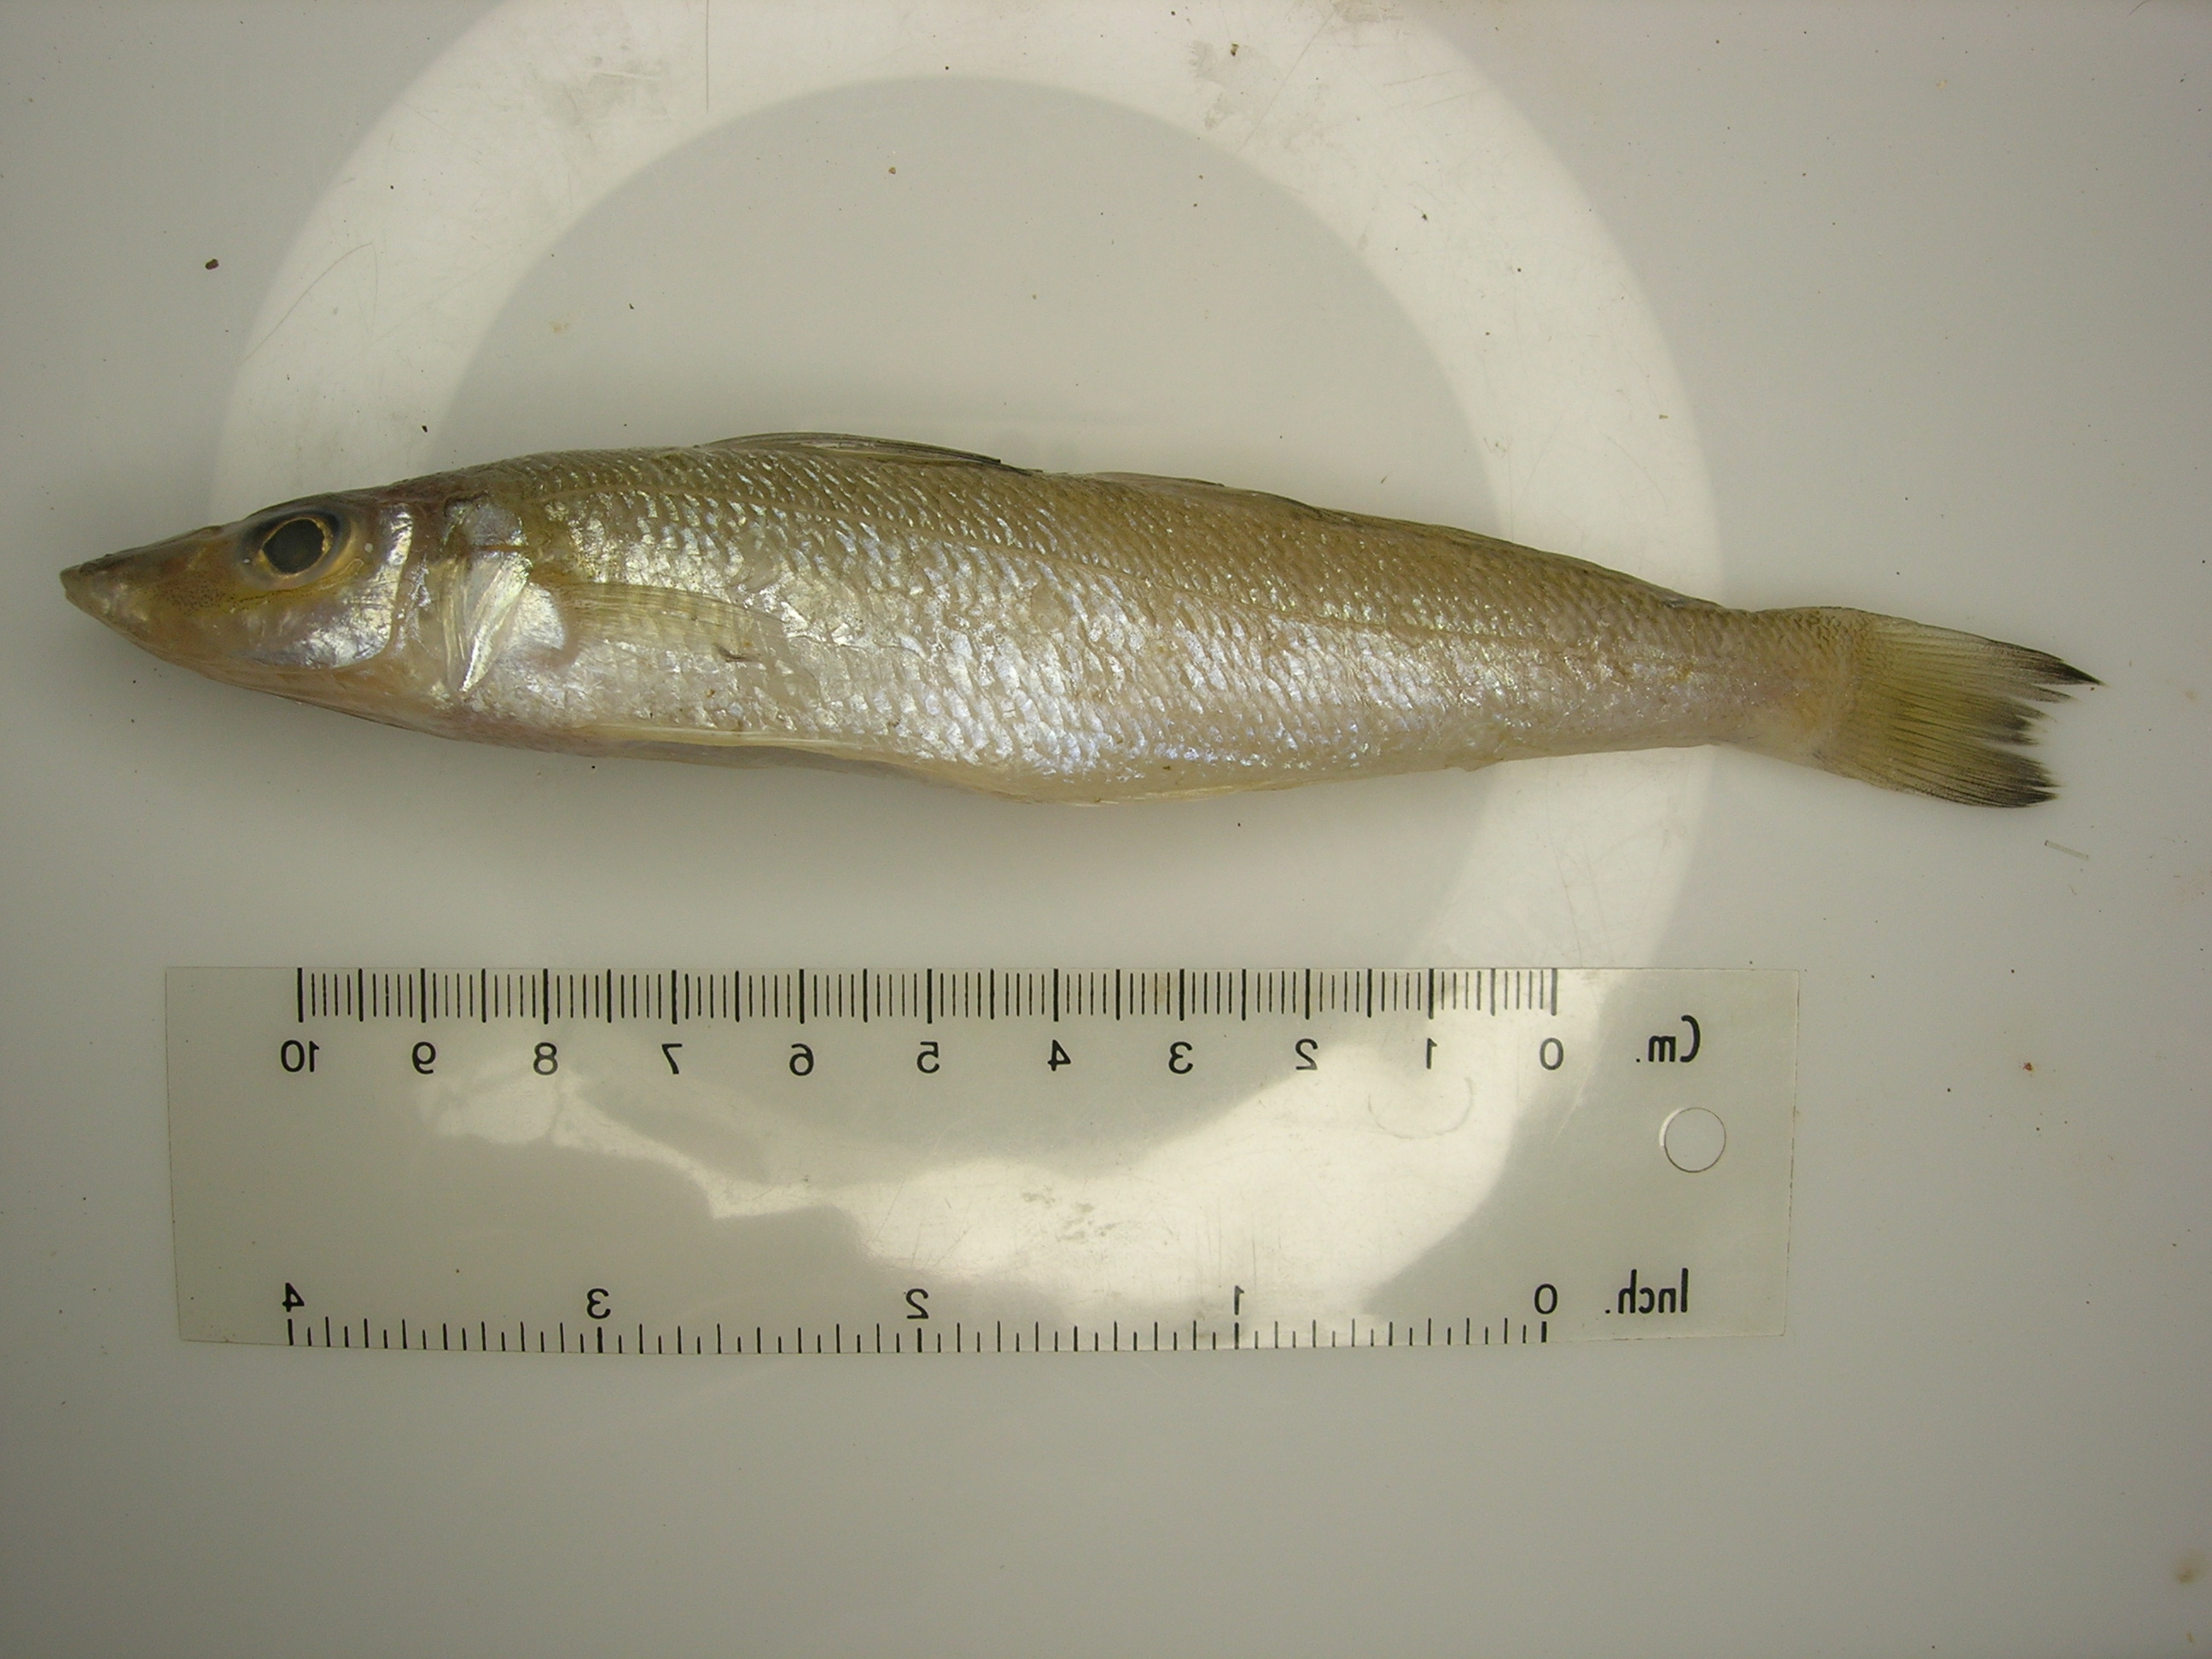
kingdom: Animalia
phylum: Chordata
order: Perciformes
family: Sillaginidae
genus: Sillago
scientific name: Sillago sihama
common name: Silver sillago
